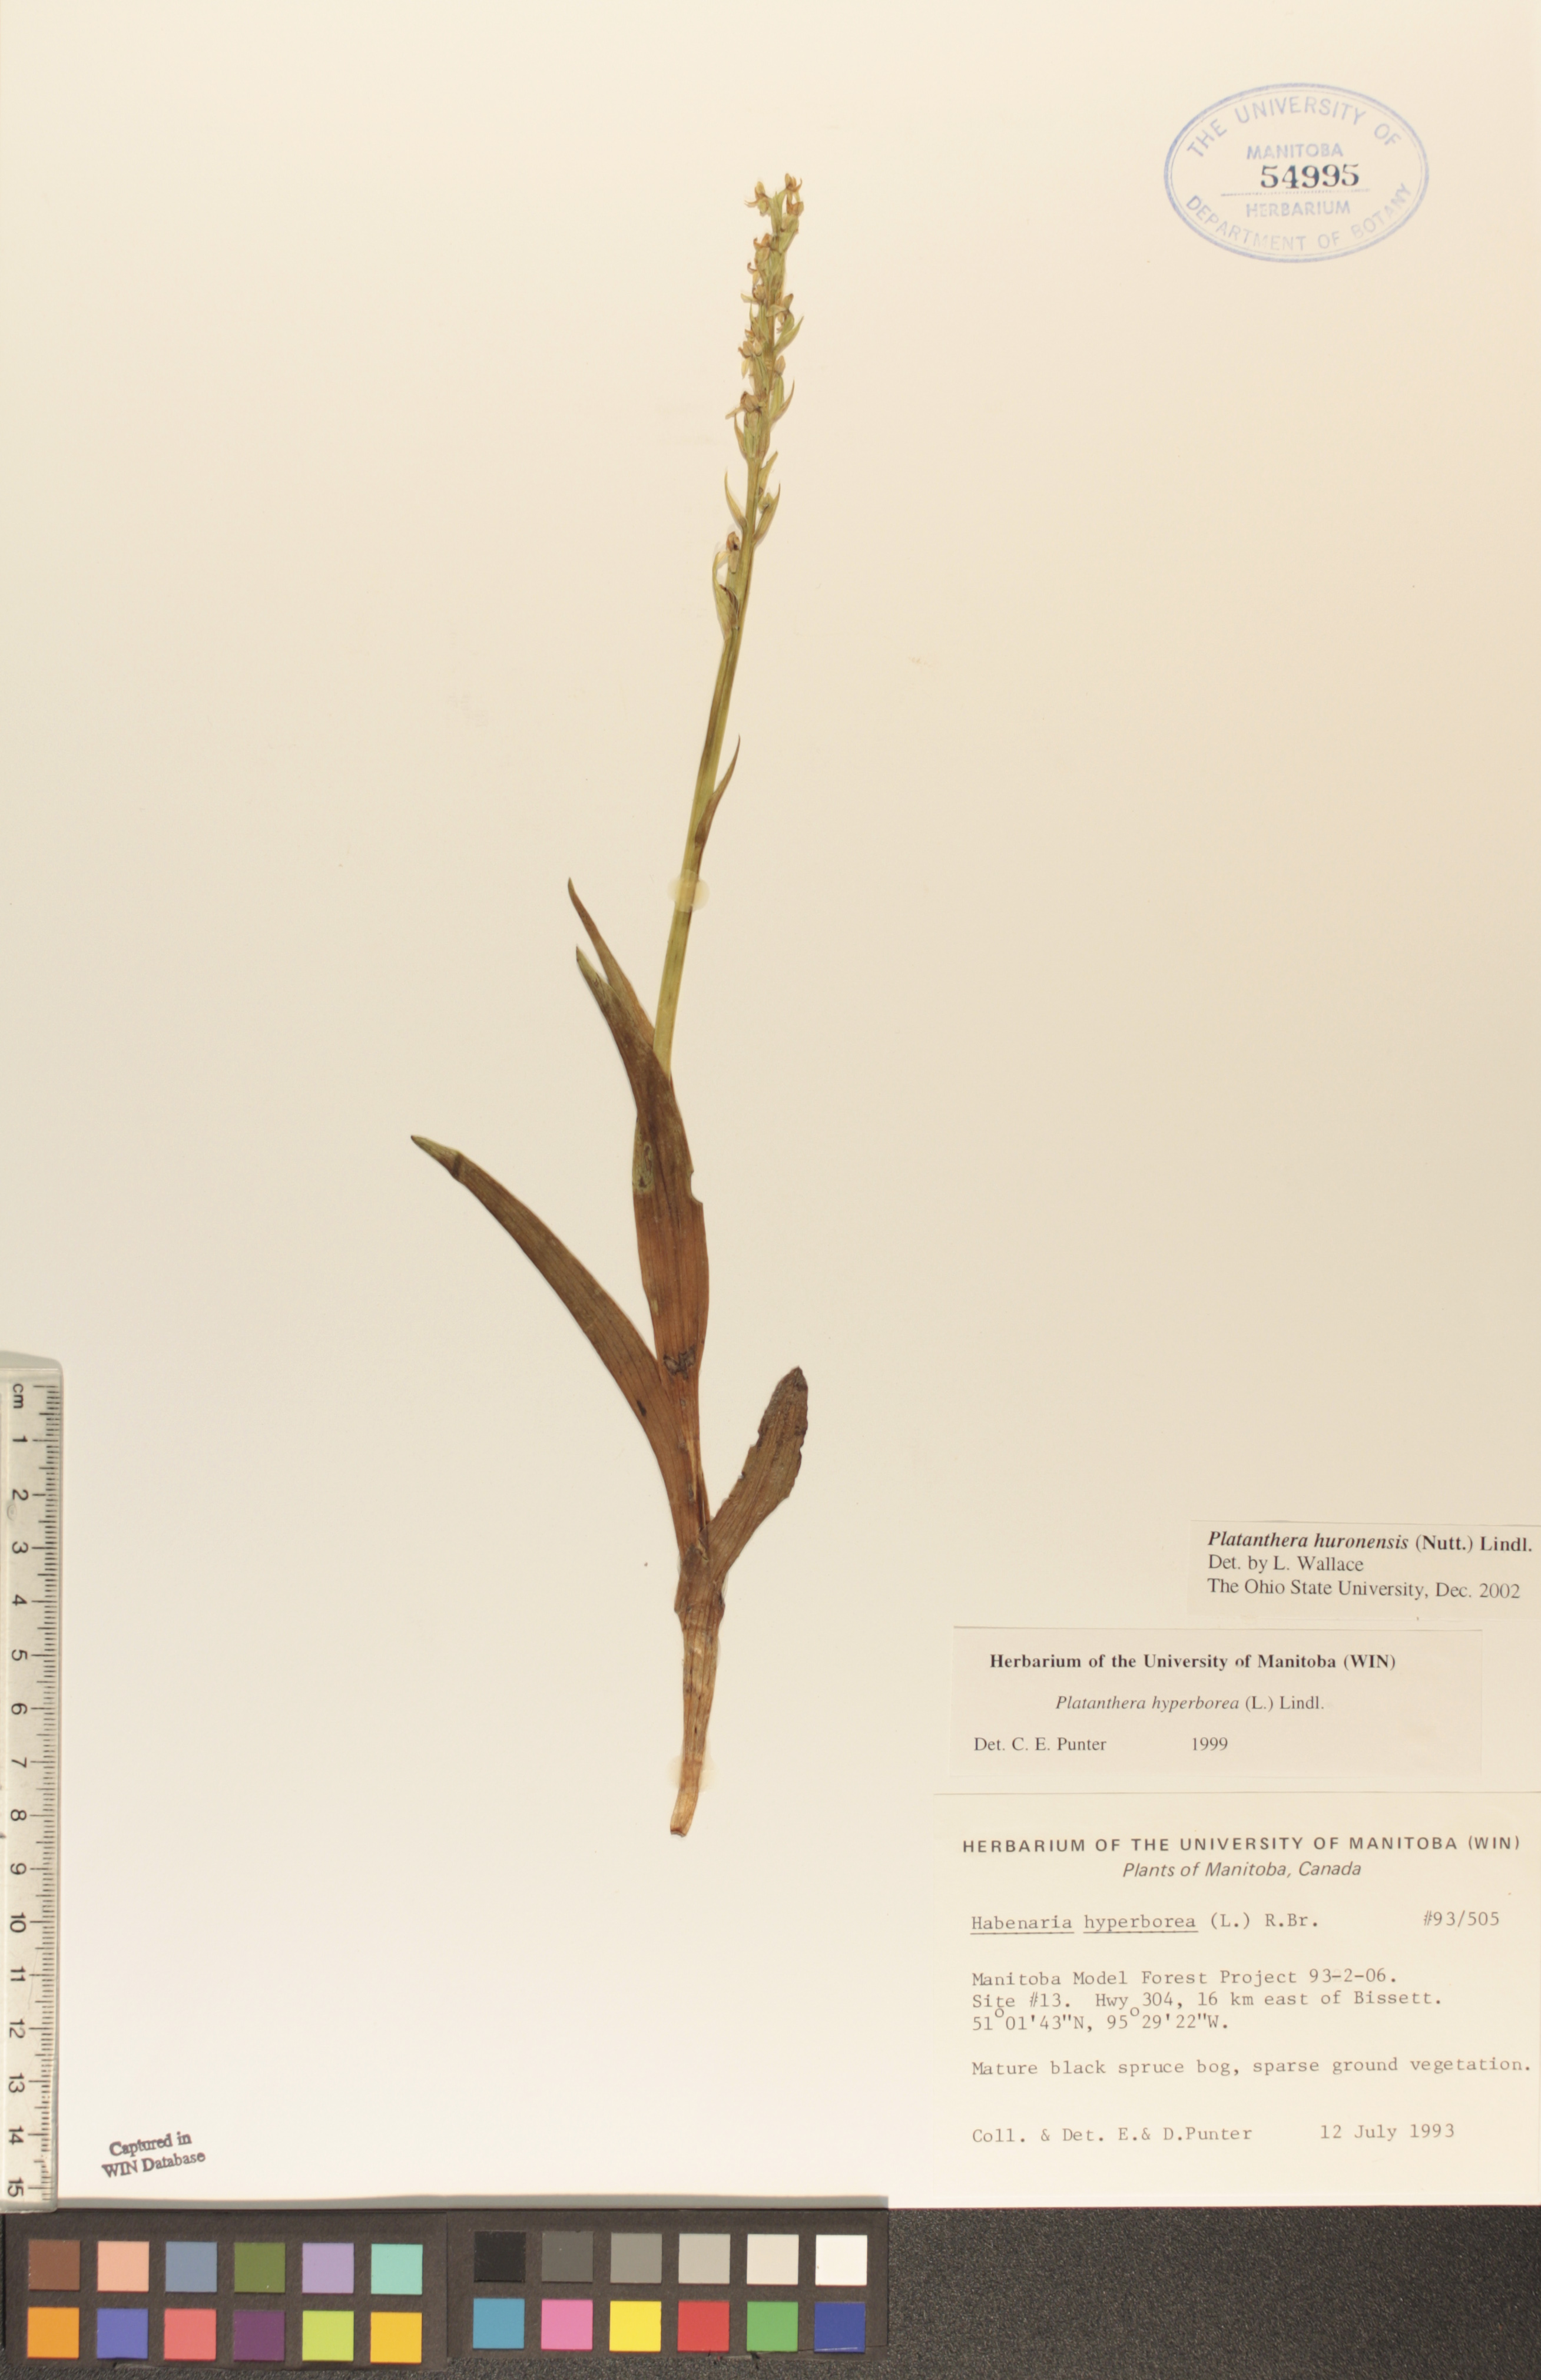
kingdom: Plantae
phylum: Tracheophyta
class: Liliopsida
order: Asparagales
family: Orchidaceae
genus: Platanthera
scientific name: Platanthera huronensis
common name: Fragrant green orchid
